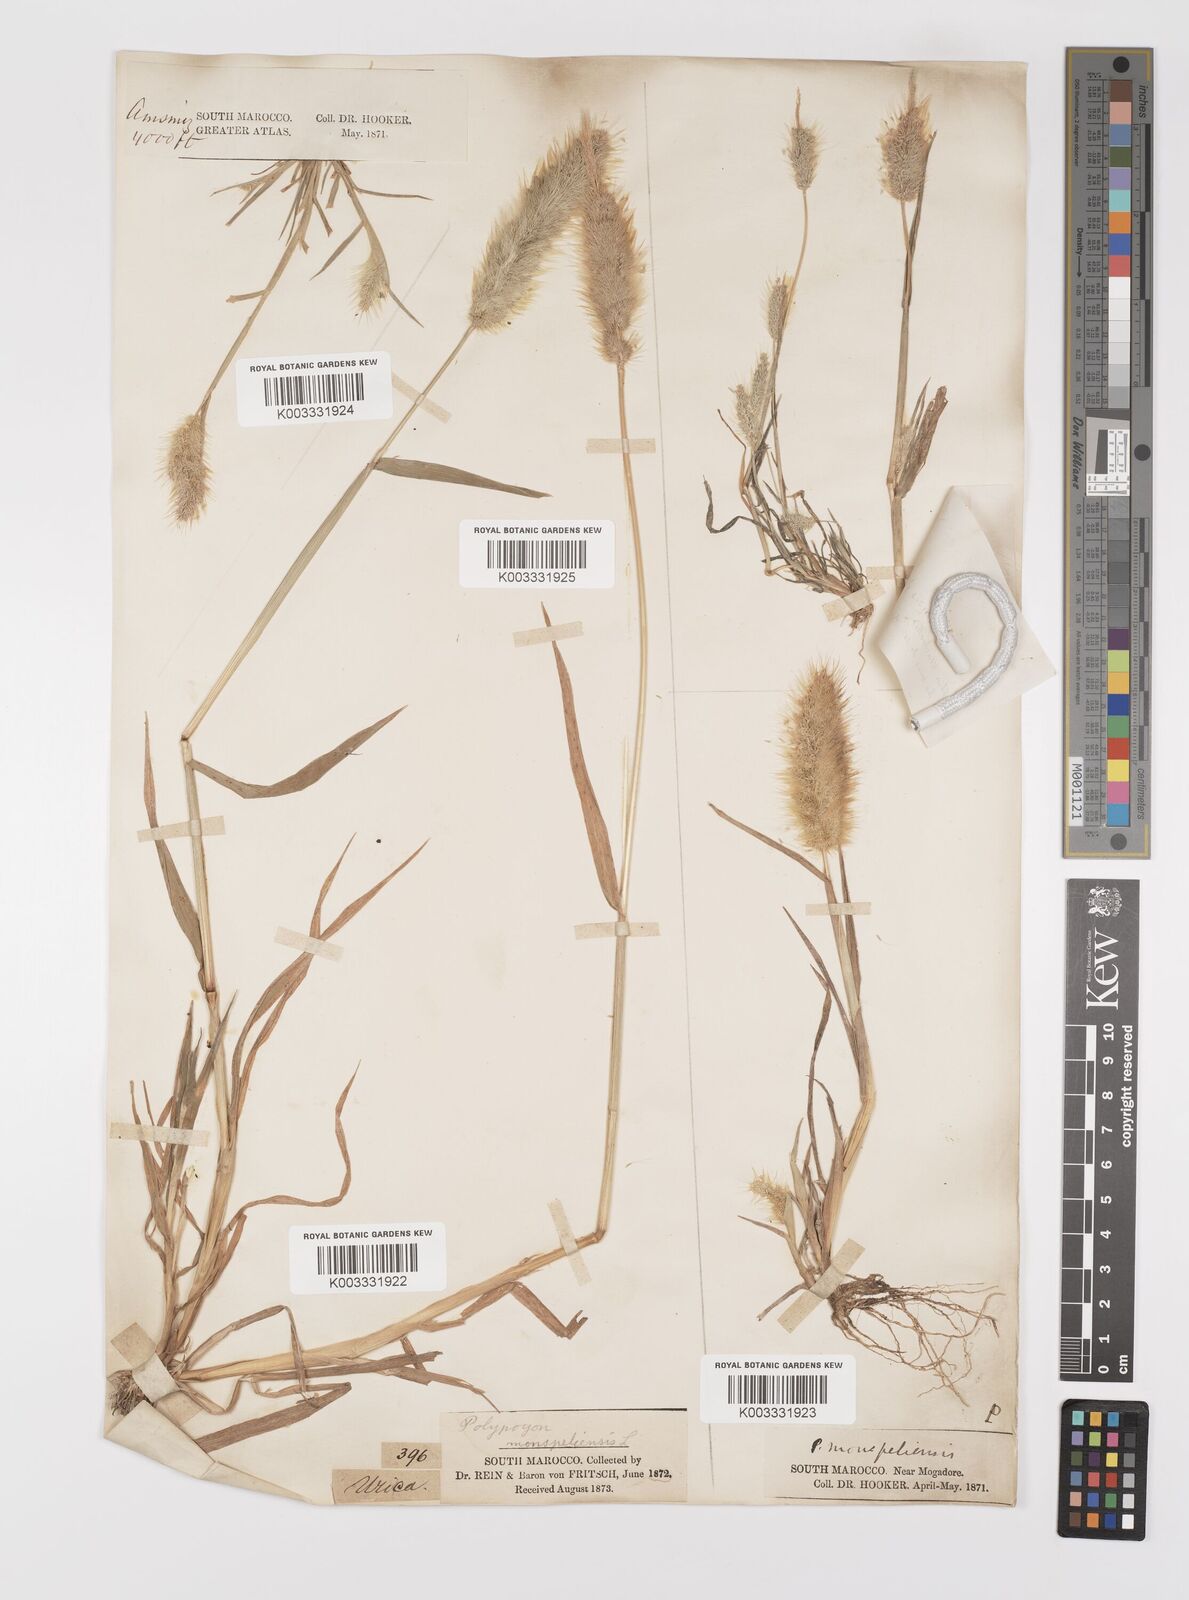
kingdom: Plantae
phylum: Tracheophyta
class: Liliopsida
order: Poales
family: Poaceae
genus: Polypogon
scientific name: Polypogon monspeliensis
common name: Annual rabbitsfoot grass
